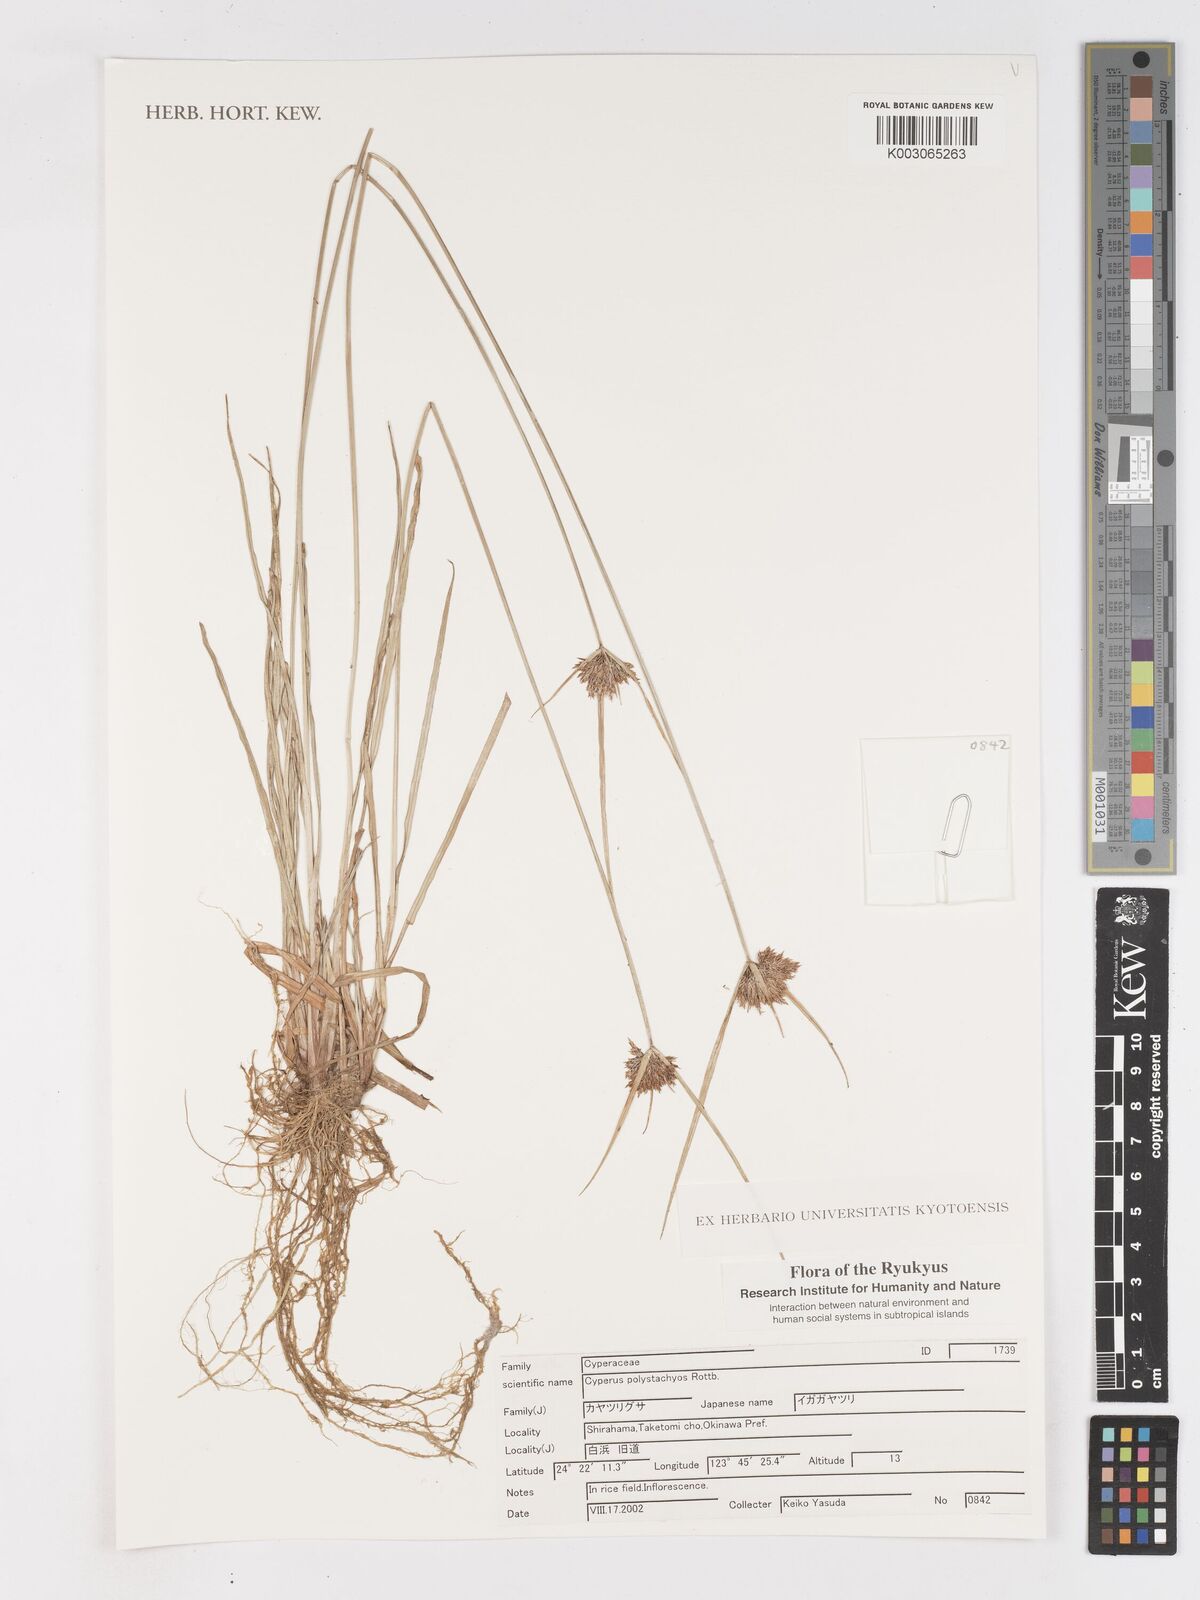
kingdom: Plantae
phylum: Tracheophyta
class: Liliopsida
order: Poales
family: Cyperaceae
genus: Cyperus
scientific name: Cyperus polystachyos
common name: Bunchy flat sedge
